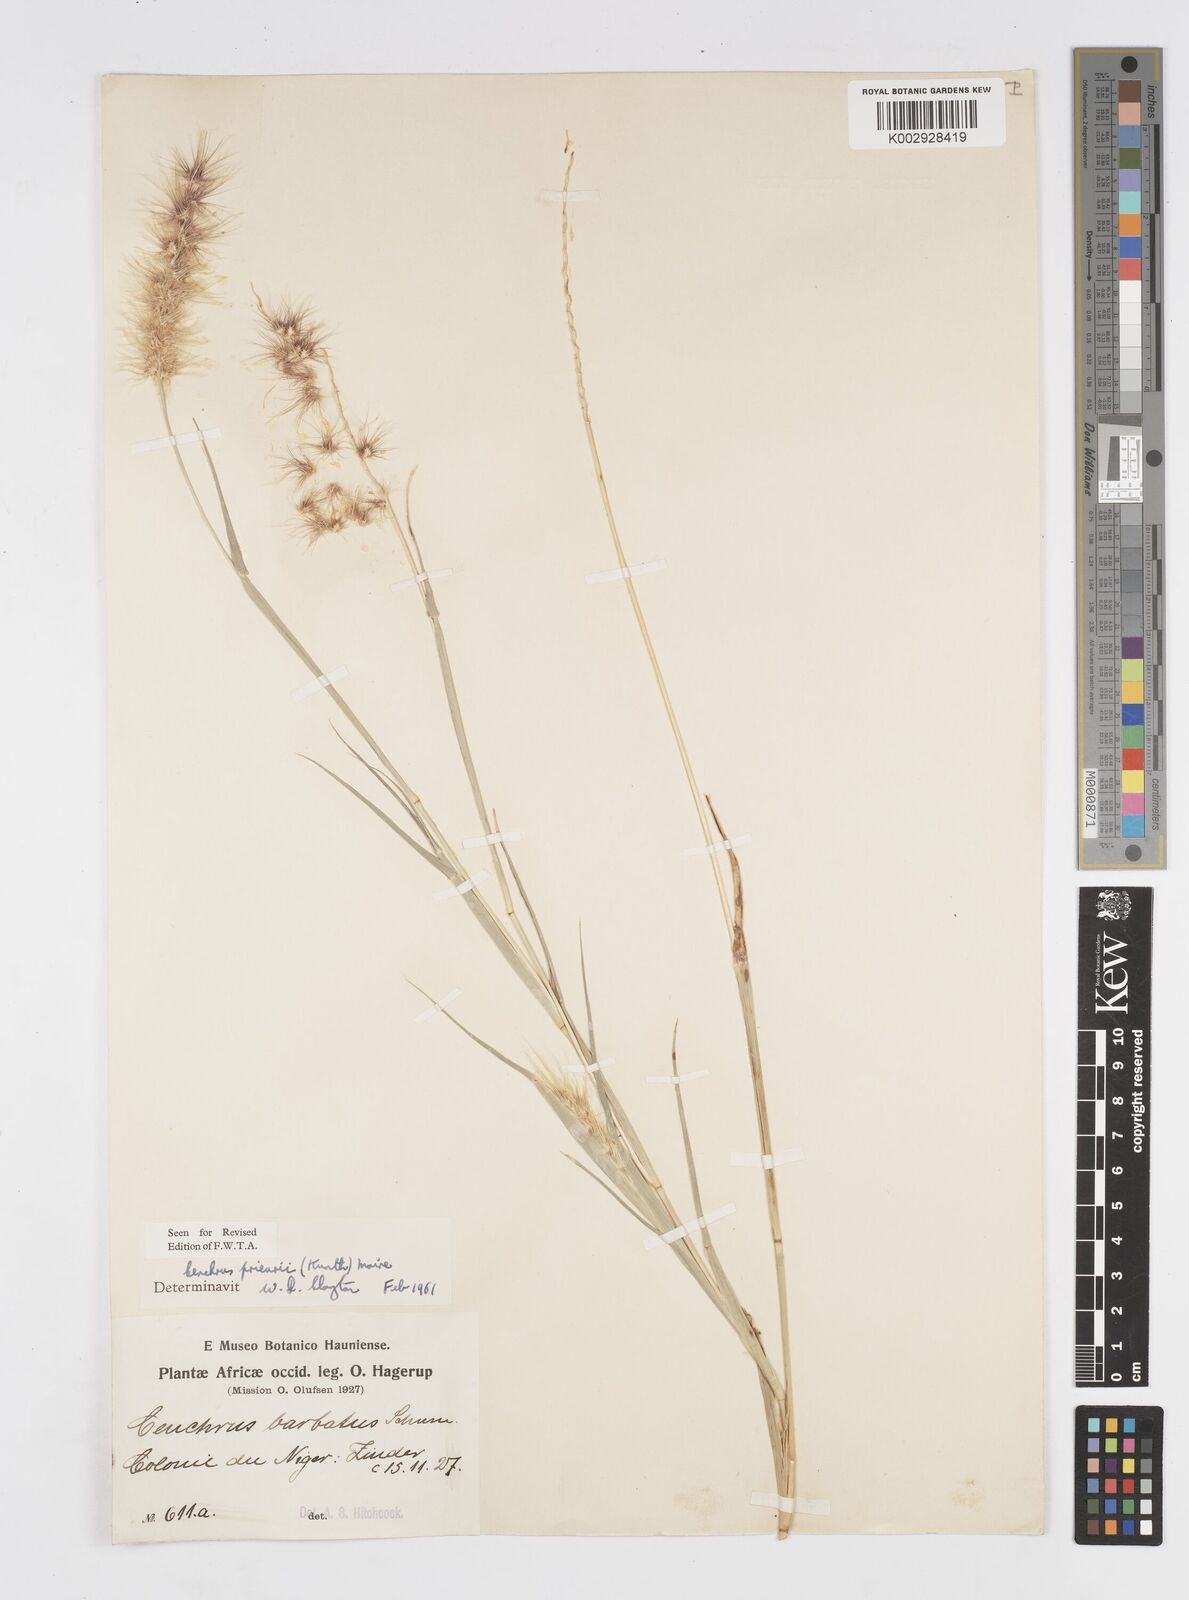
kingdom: Plantae
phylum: Tracheophyta
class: Liliopsida
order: Poales
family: Poaceae
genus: Cenchrus
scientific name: Cenchrus prieurii
